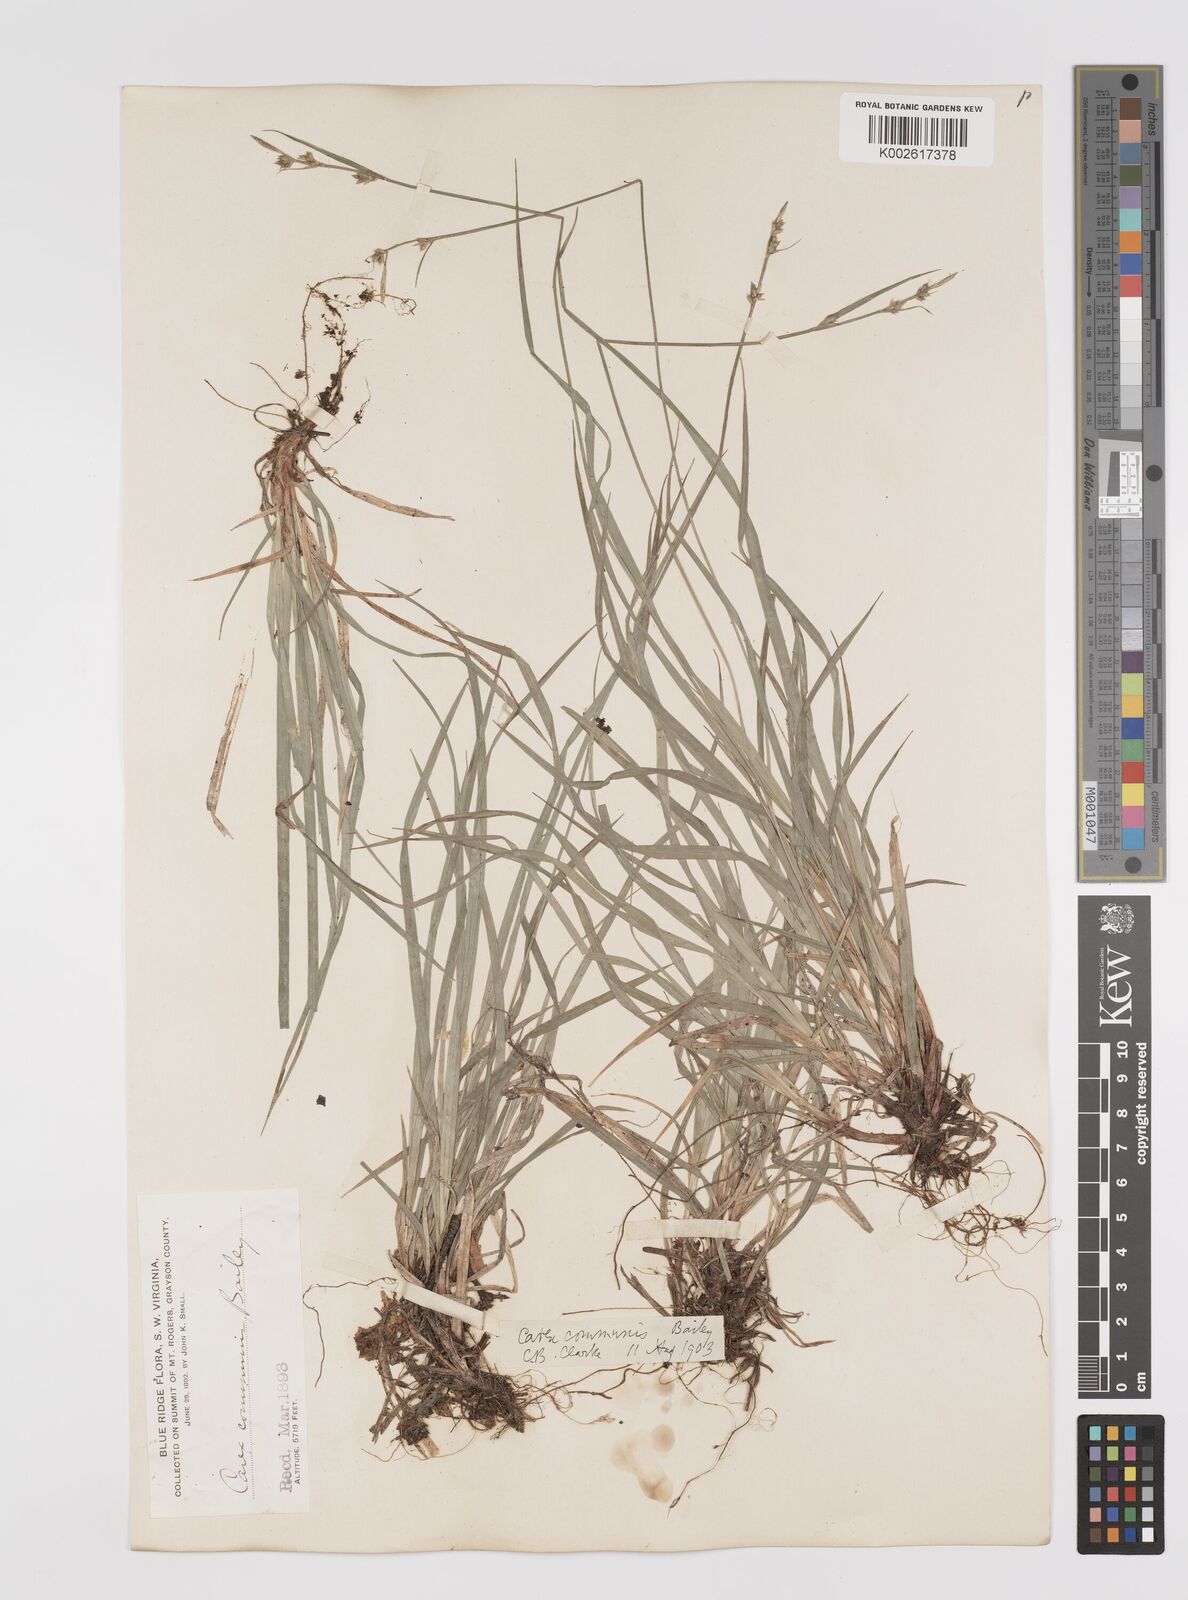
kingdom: Plantae
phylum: Tracheophyta
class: Liliopsida
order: Poales
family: Cyperaceae
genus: Carex
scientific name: Carex communis
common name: Colonial oak sedge
